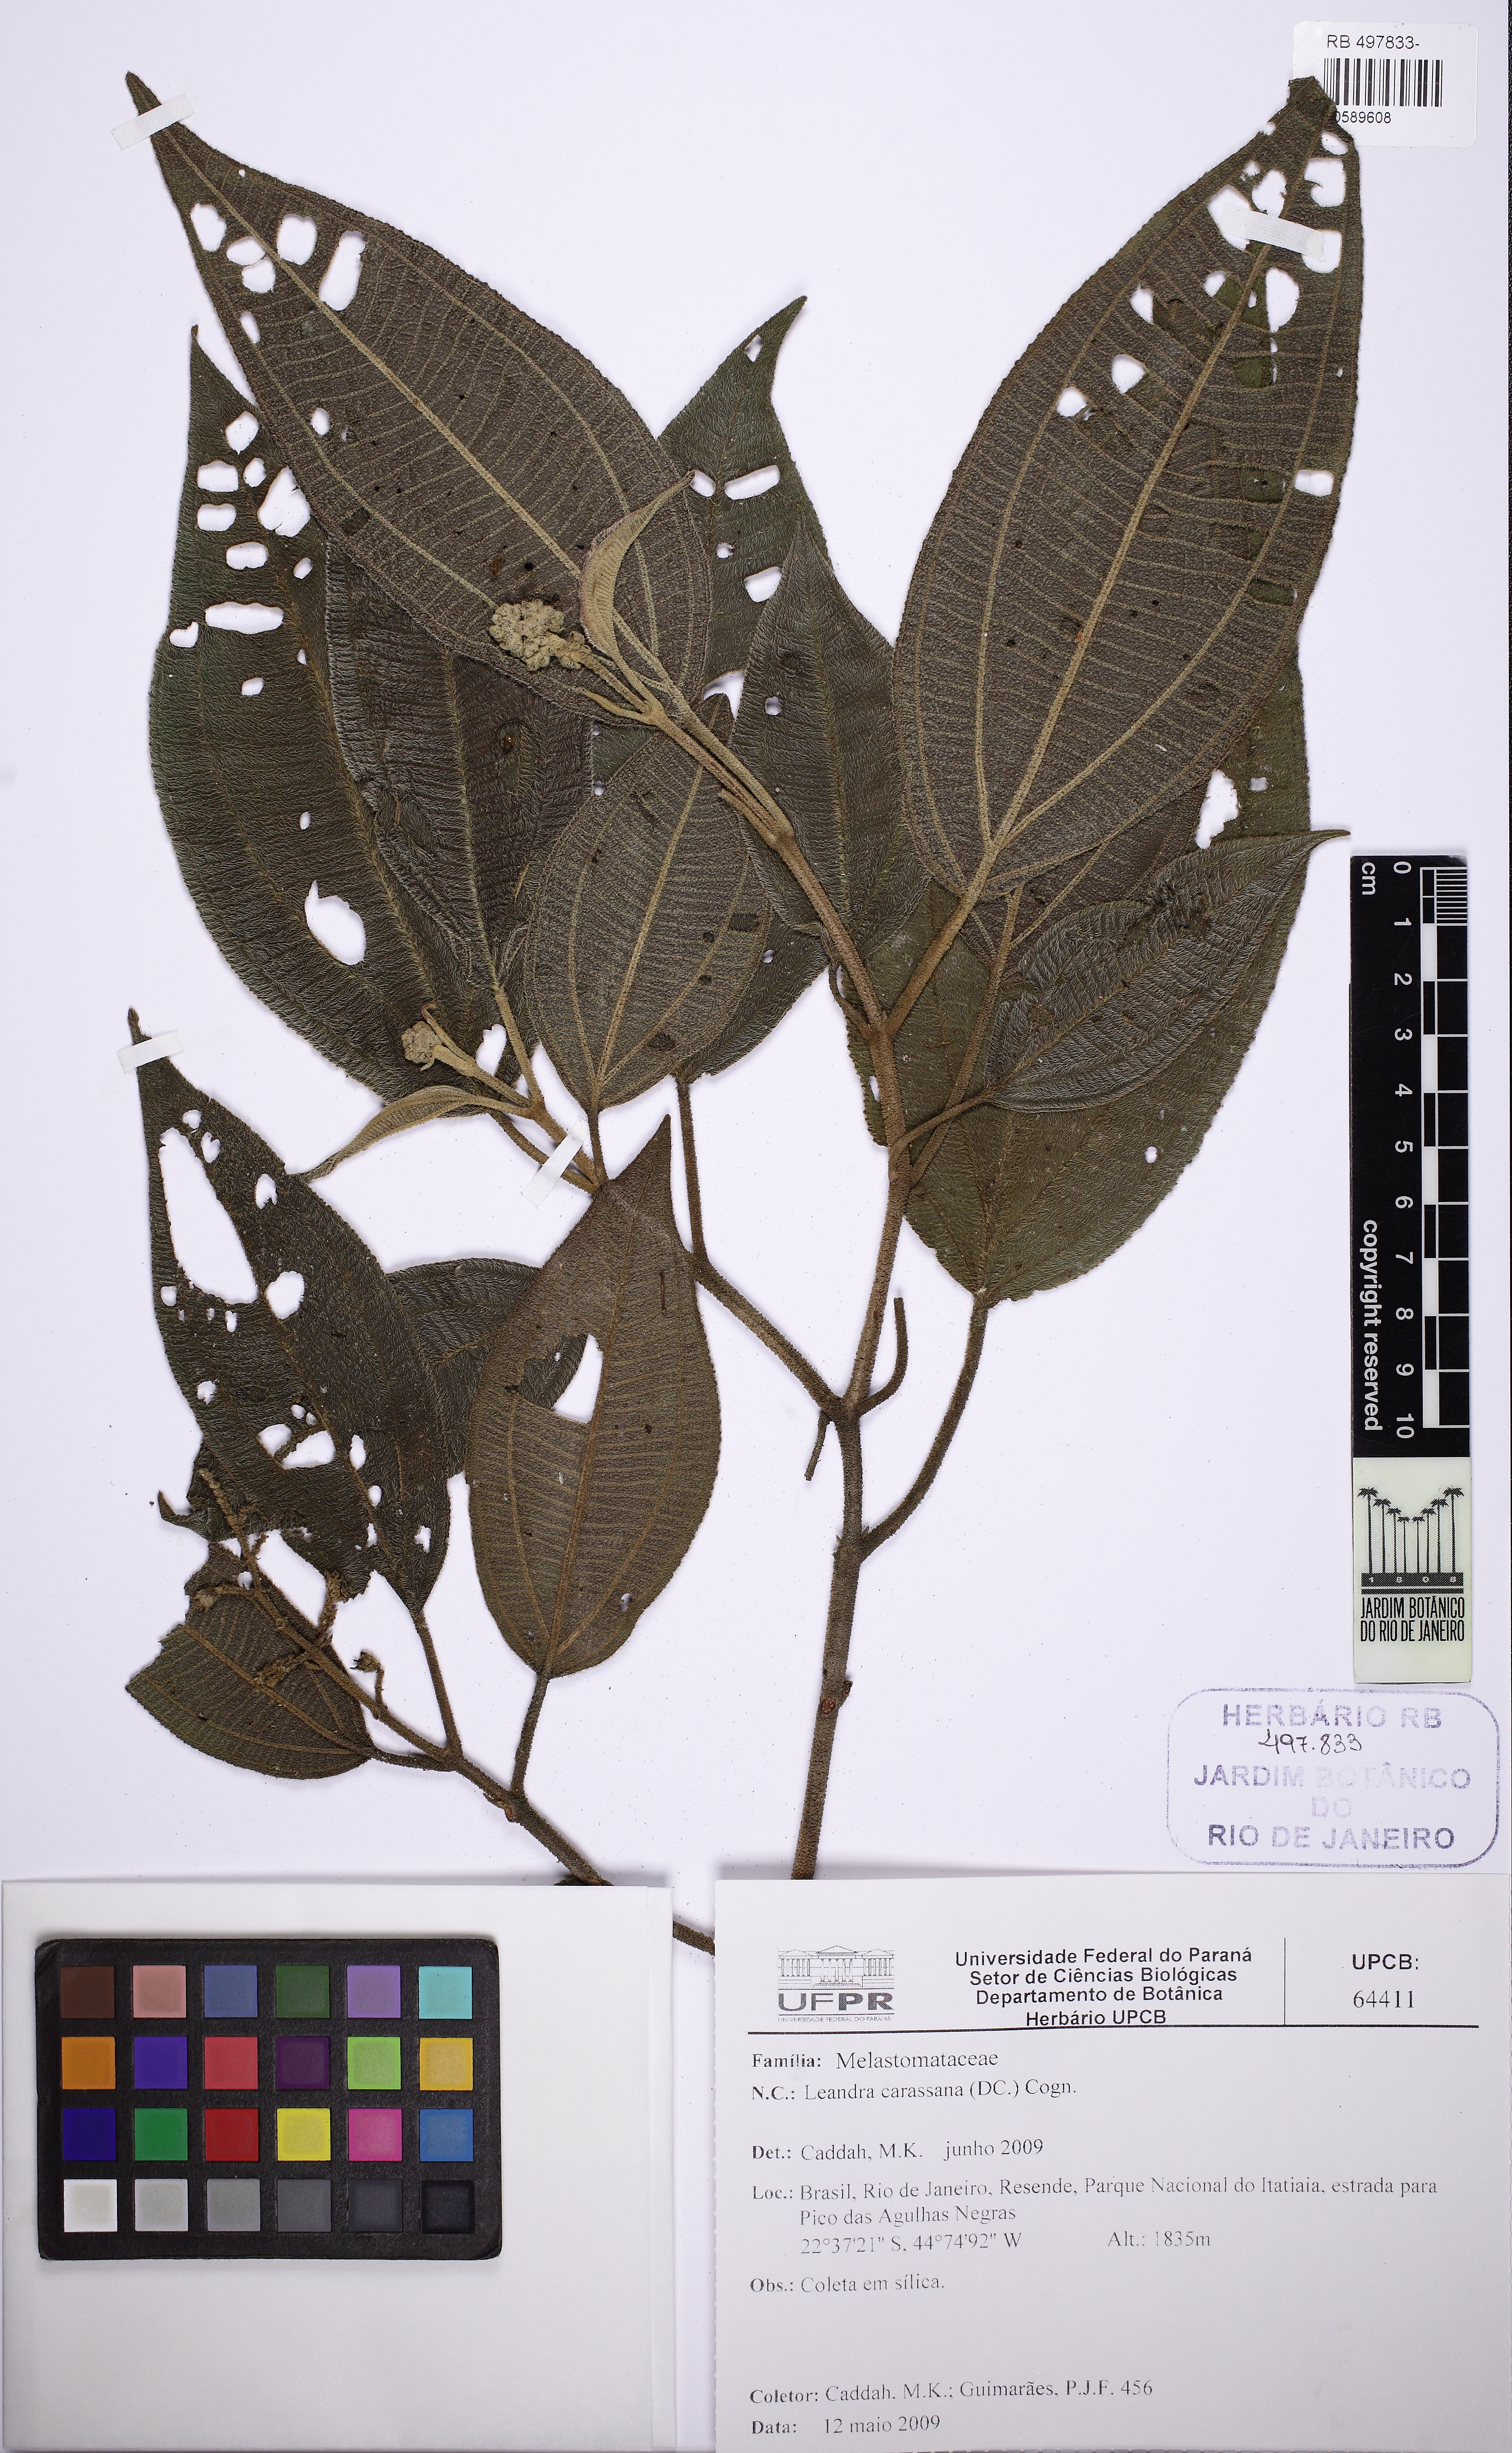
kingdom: Plantae
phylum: Tracheophyta
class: Magnoliopsida
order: Myrtales
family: Melastomataceae
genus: Miconia
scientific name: Miconia sublanata
